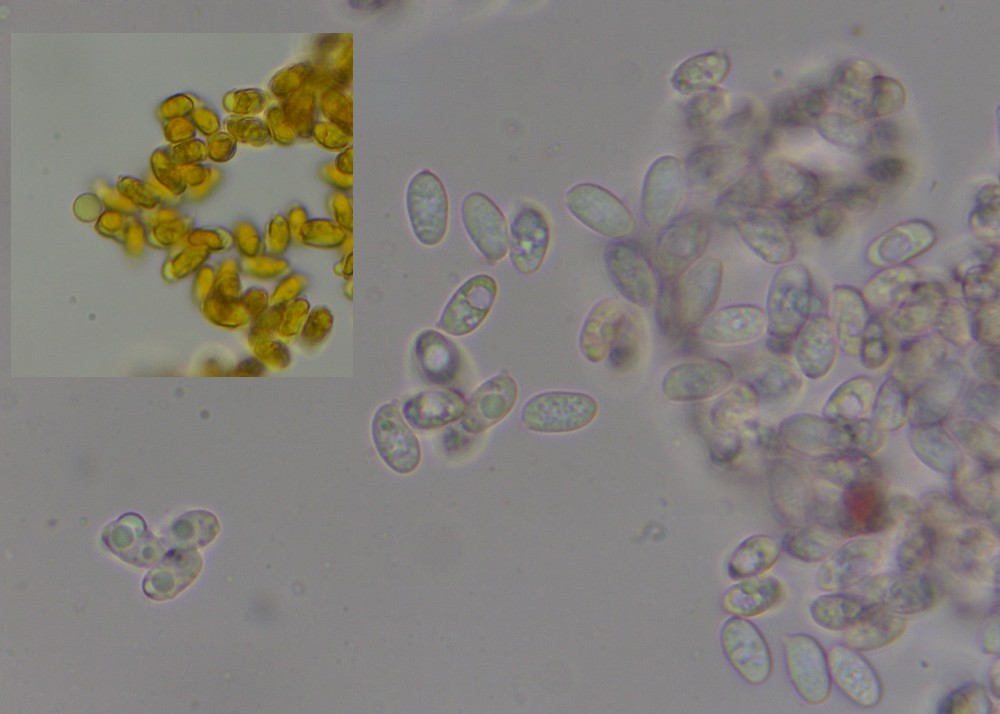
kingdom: Fungi
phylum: Basidiomycota
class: Agaricomycetes
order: Agaricales
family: Tricholomataceae
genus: Clitocybe
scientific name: Clitocybe
